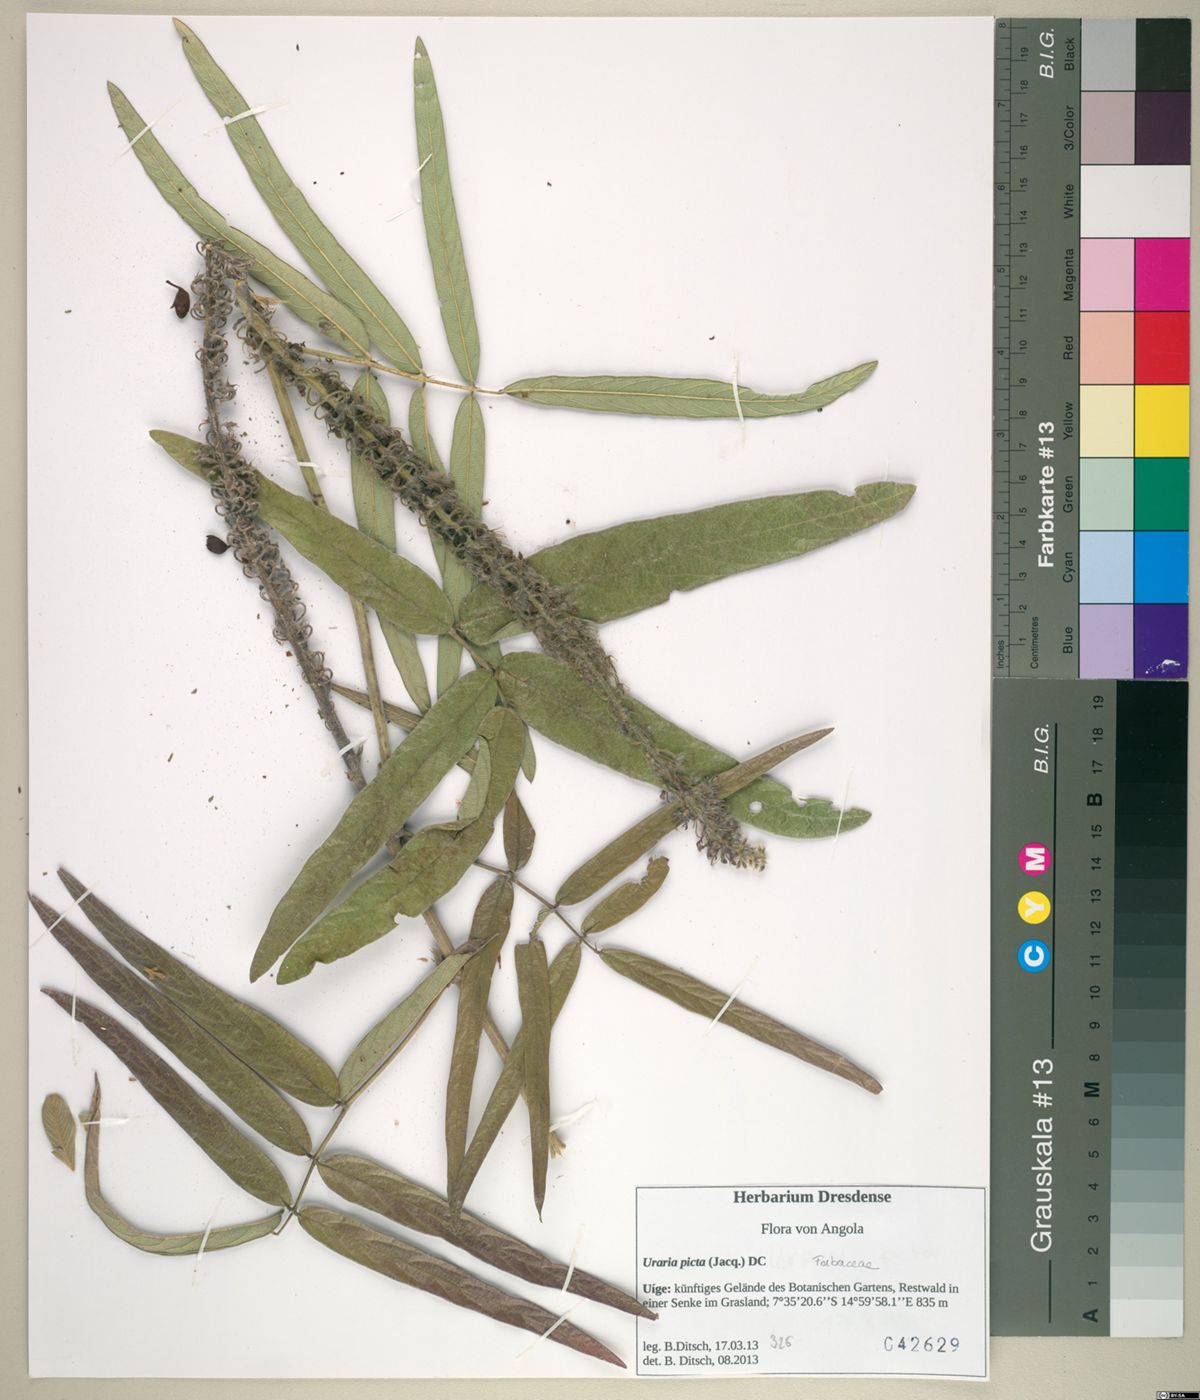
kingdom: Plantae
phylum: Tracheophyta
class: Magnoliopsida
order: Fabales
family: Fabaceae
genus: Uraria
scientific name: Uraria picta
